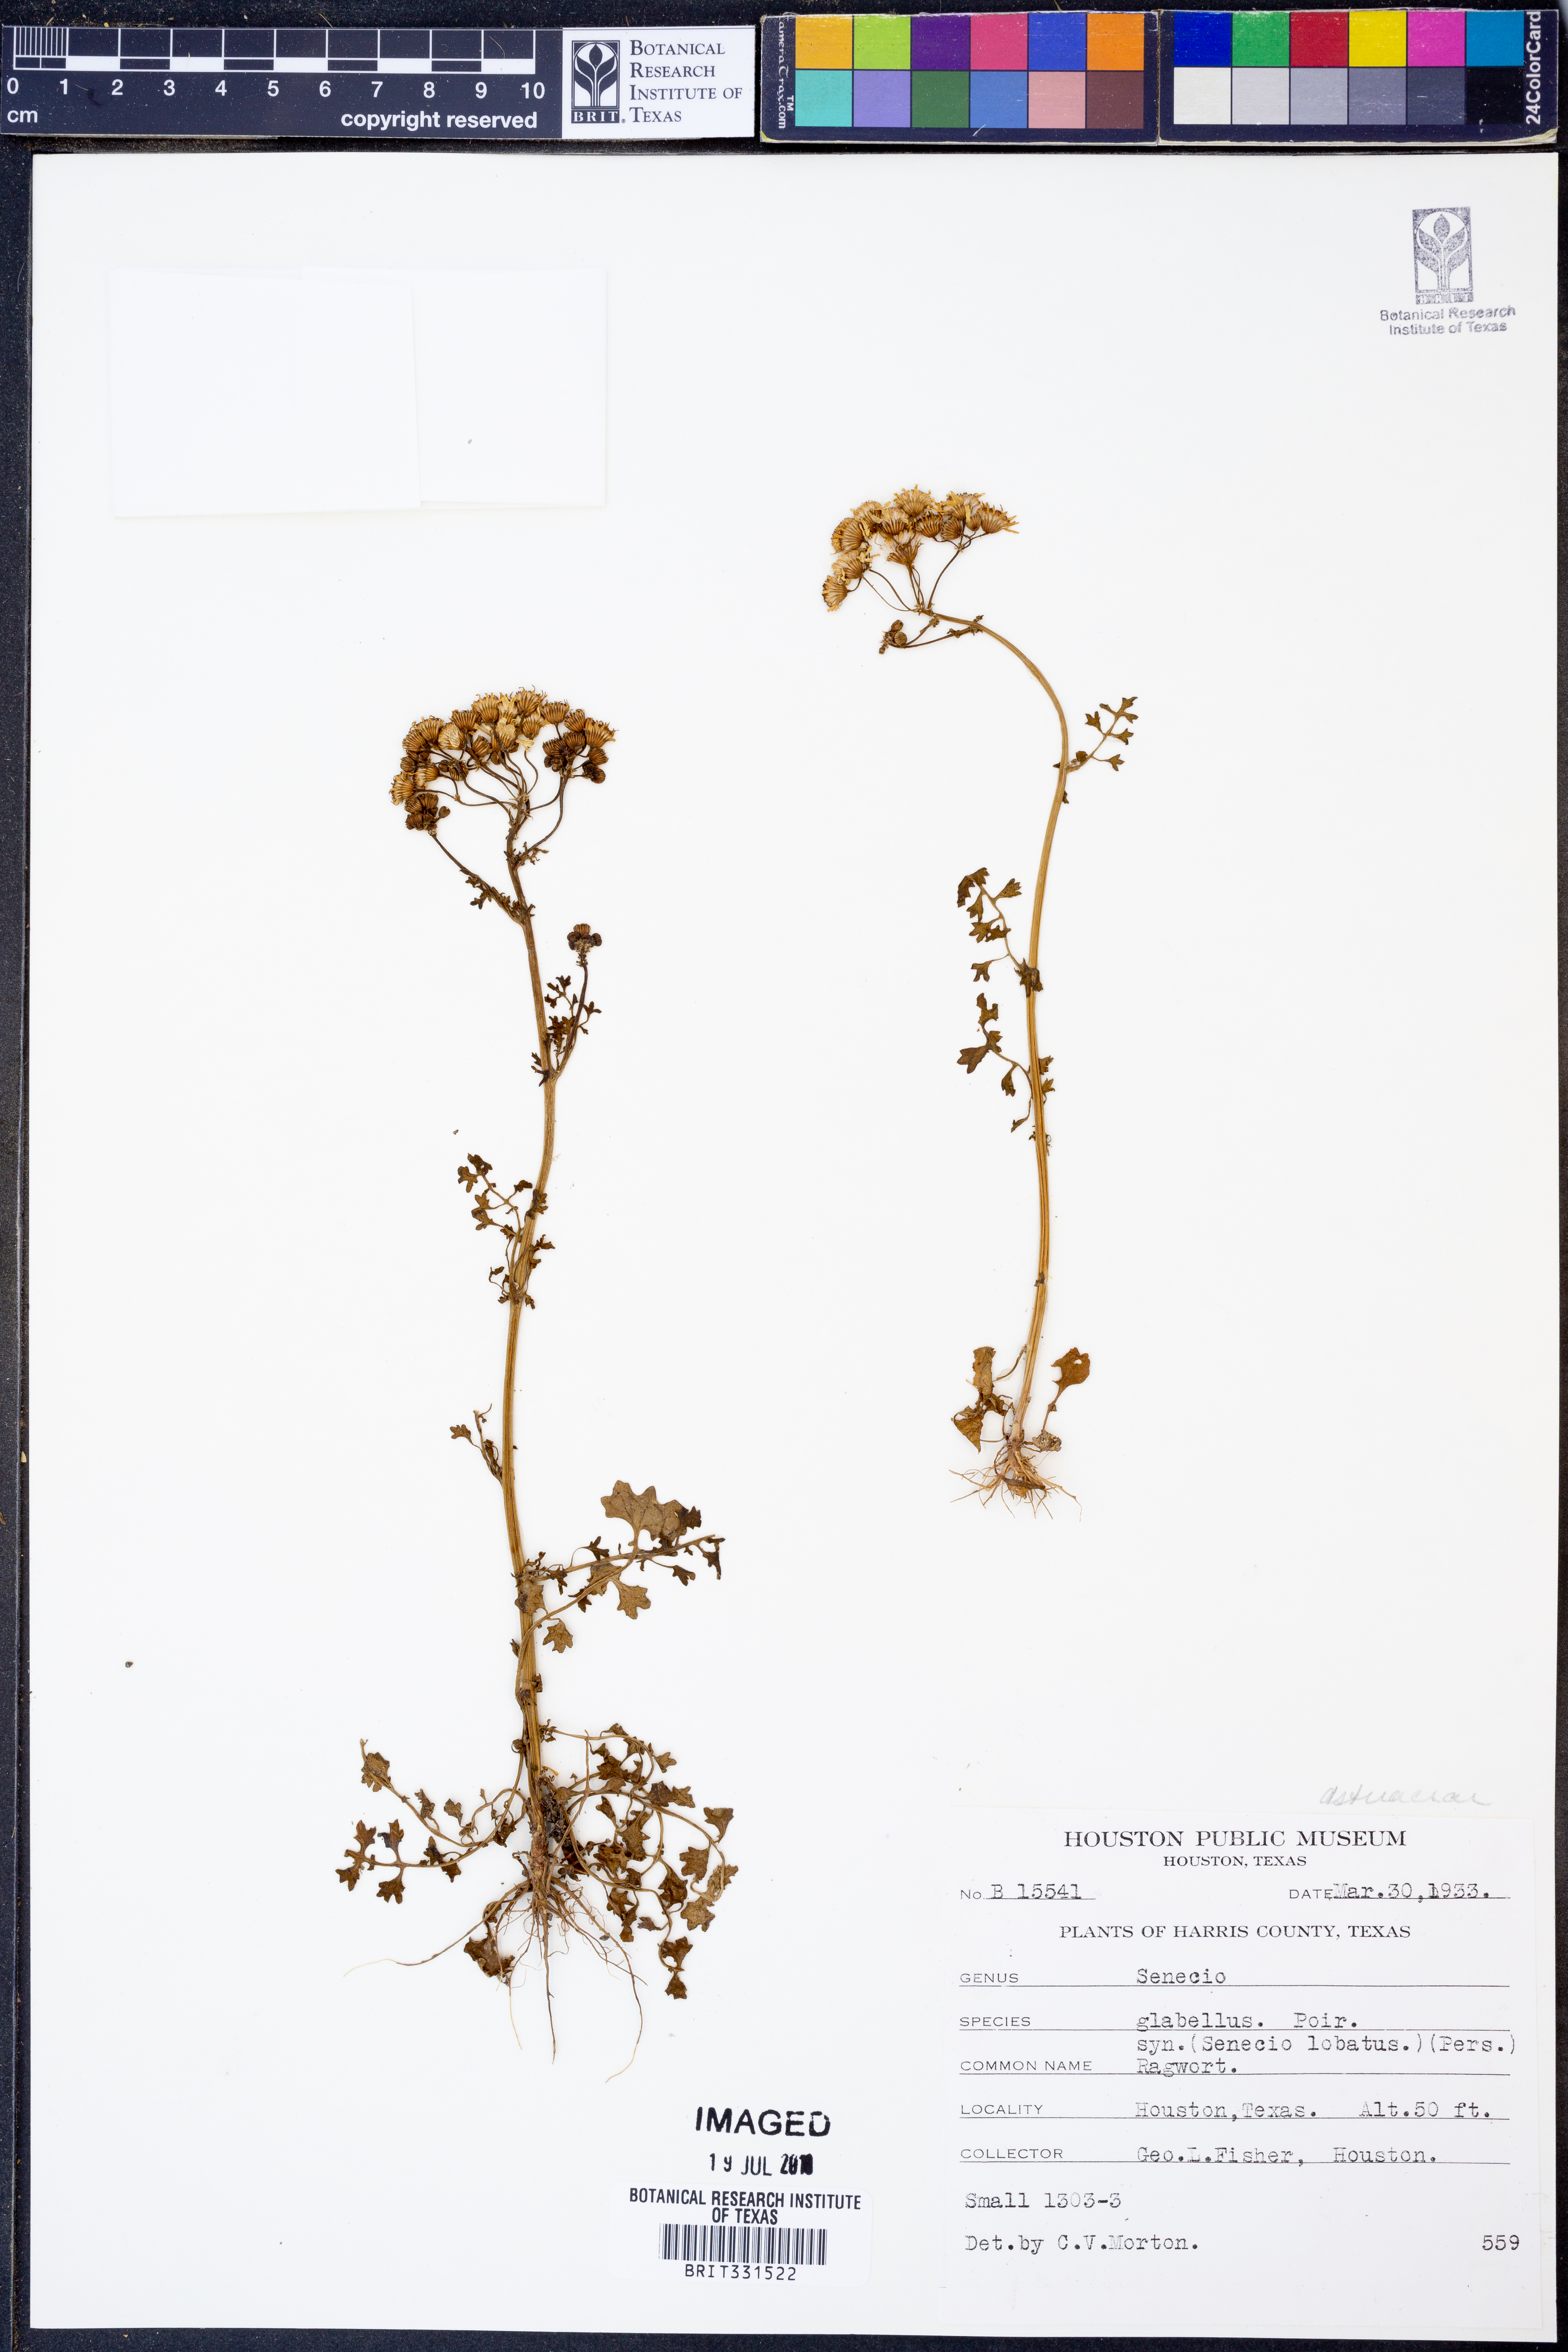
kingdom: Plantae
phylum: Tracheophyta
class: Magnoliopsida
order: Asterales
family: Asteraceae
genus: Tephroseris
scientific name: Tephroseris praticola
